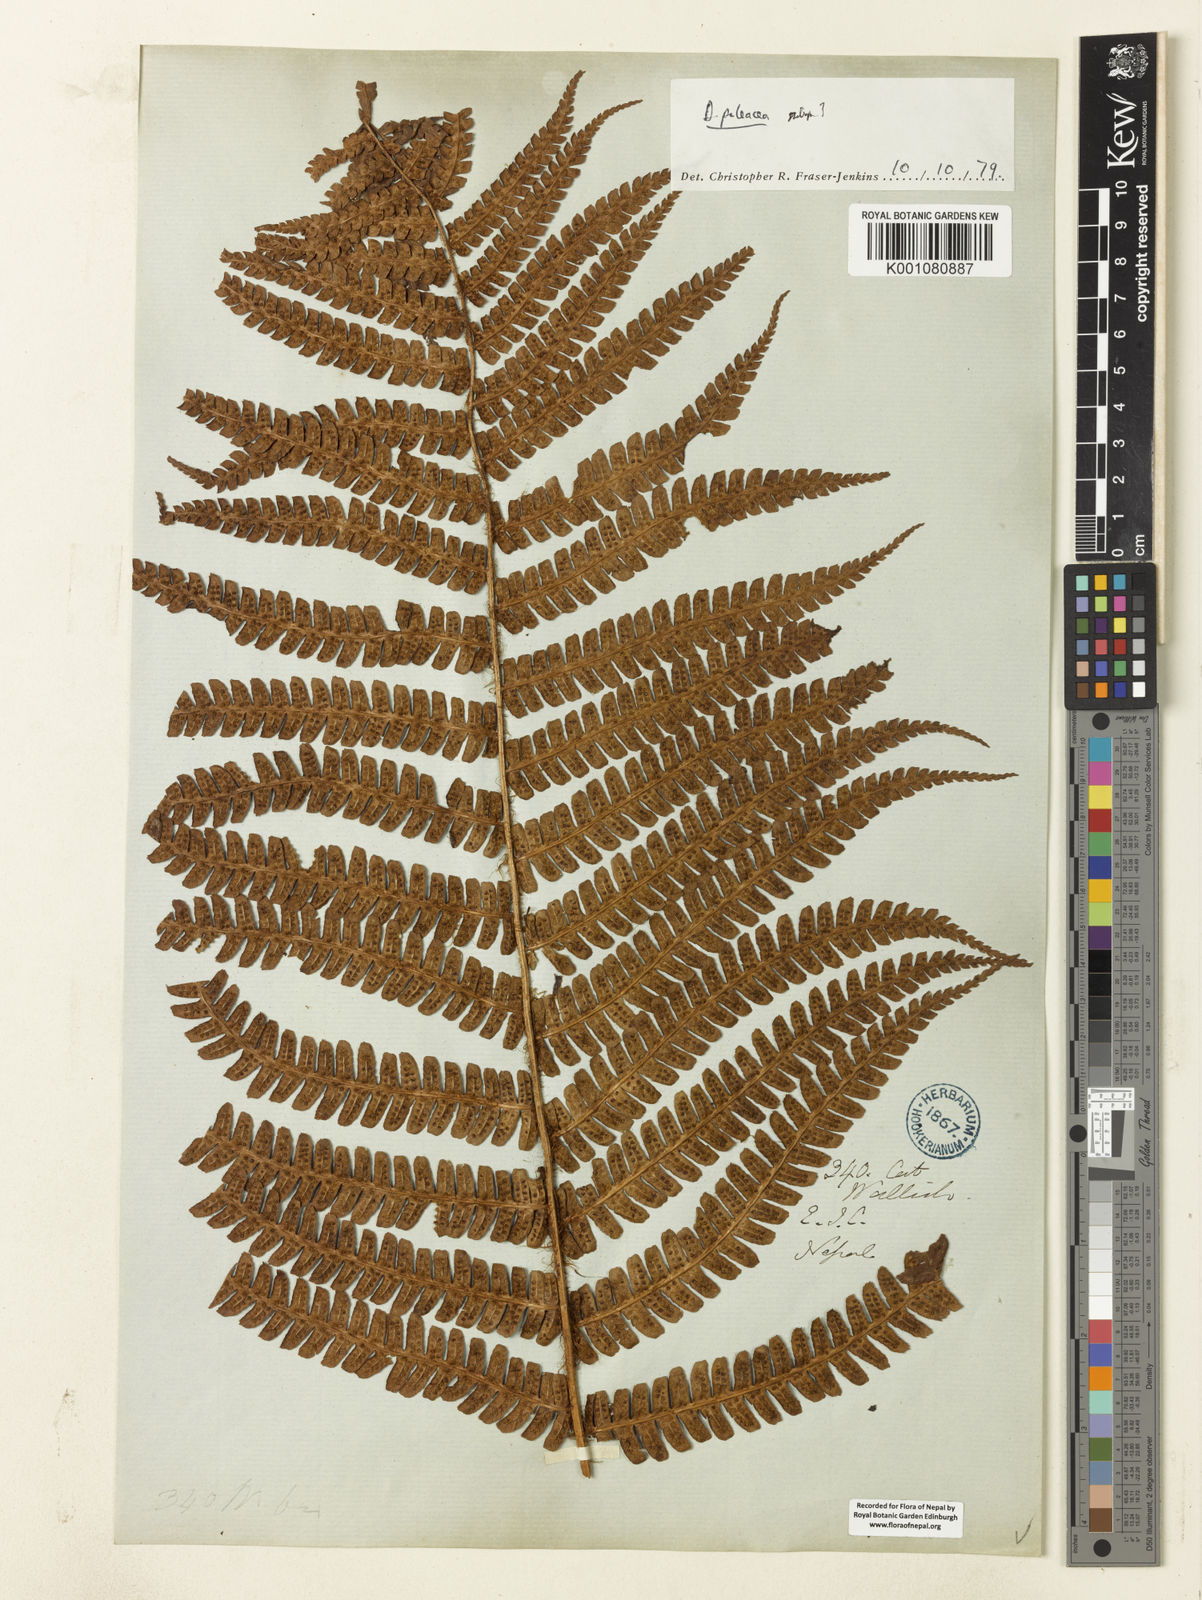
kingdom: Plantae
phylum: Tracheophyta
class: Polypodiopsida
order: Polypodiales
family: Dryopteridaceae
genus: Dryopteris
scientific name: Dryopteris wallichiana
